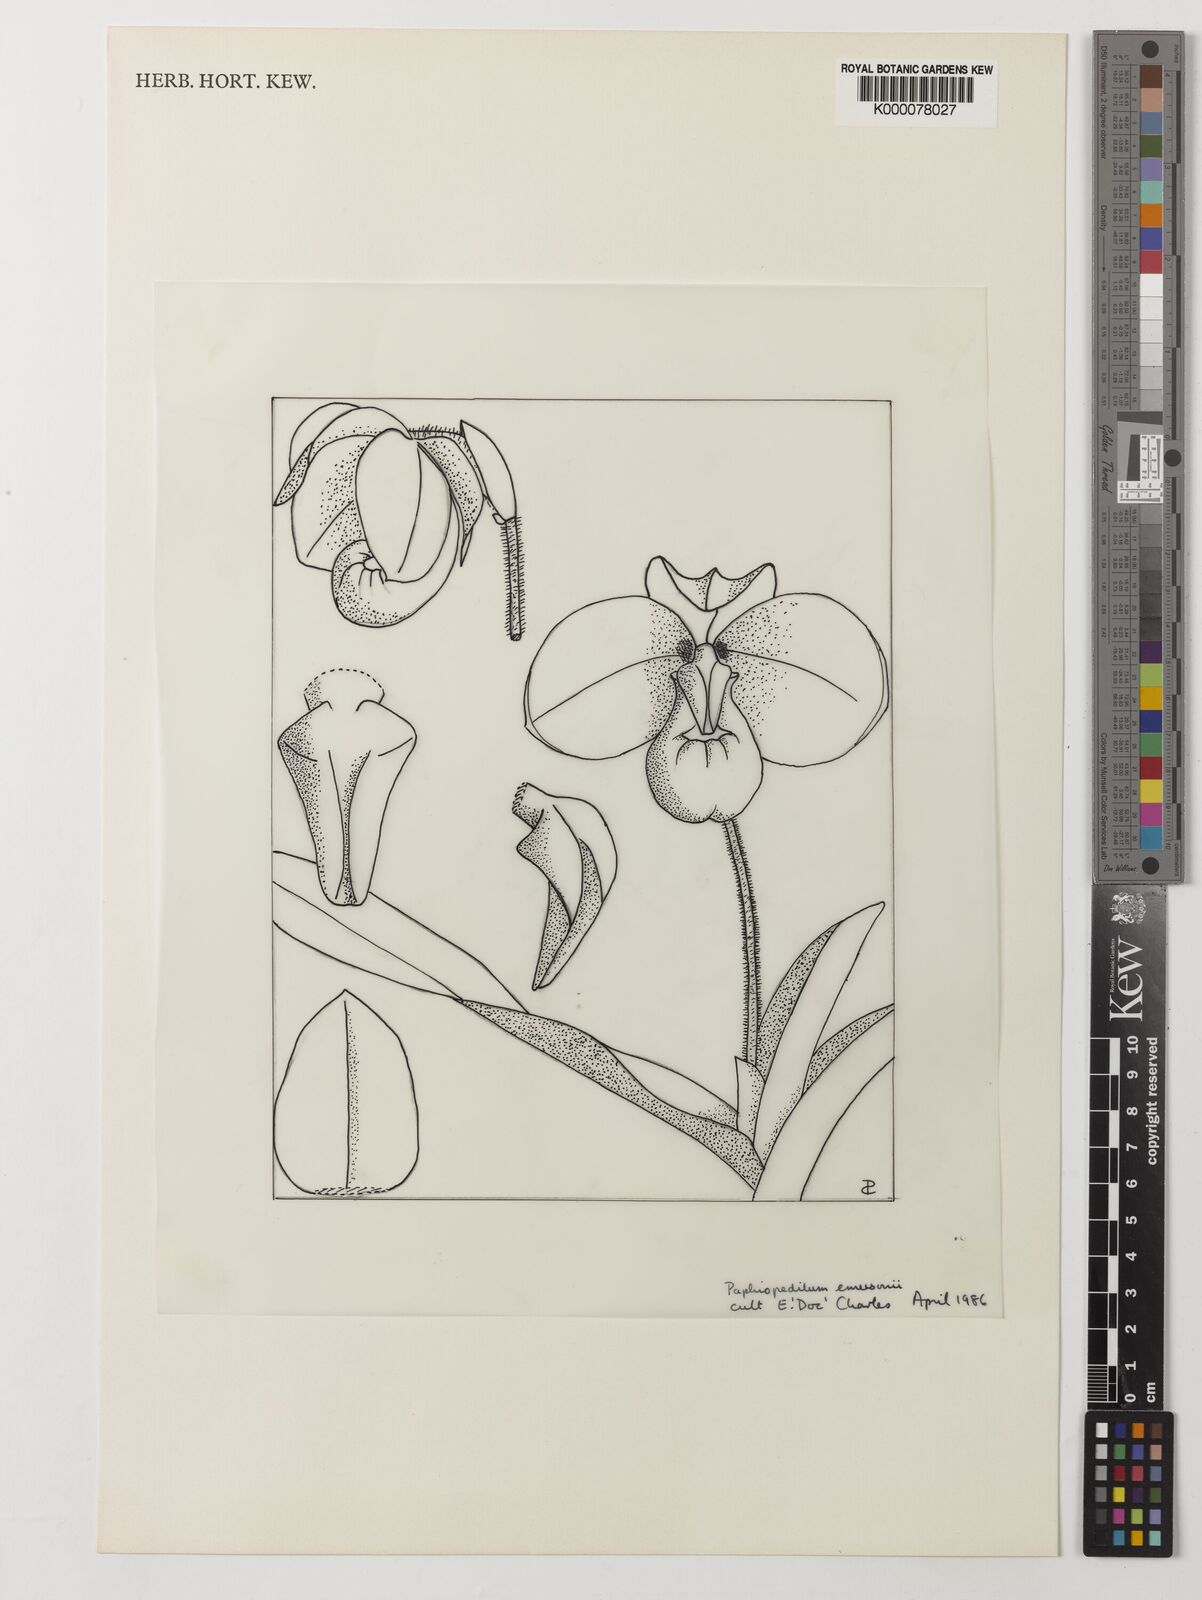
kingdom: Plantae
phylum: Tracheophyta
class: Liliopsida
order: Asparagales
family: Orchidaceae
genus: Paphiopedilum
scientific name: Paphiopedilum emersonii
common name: Emerson's paphiopedilum
